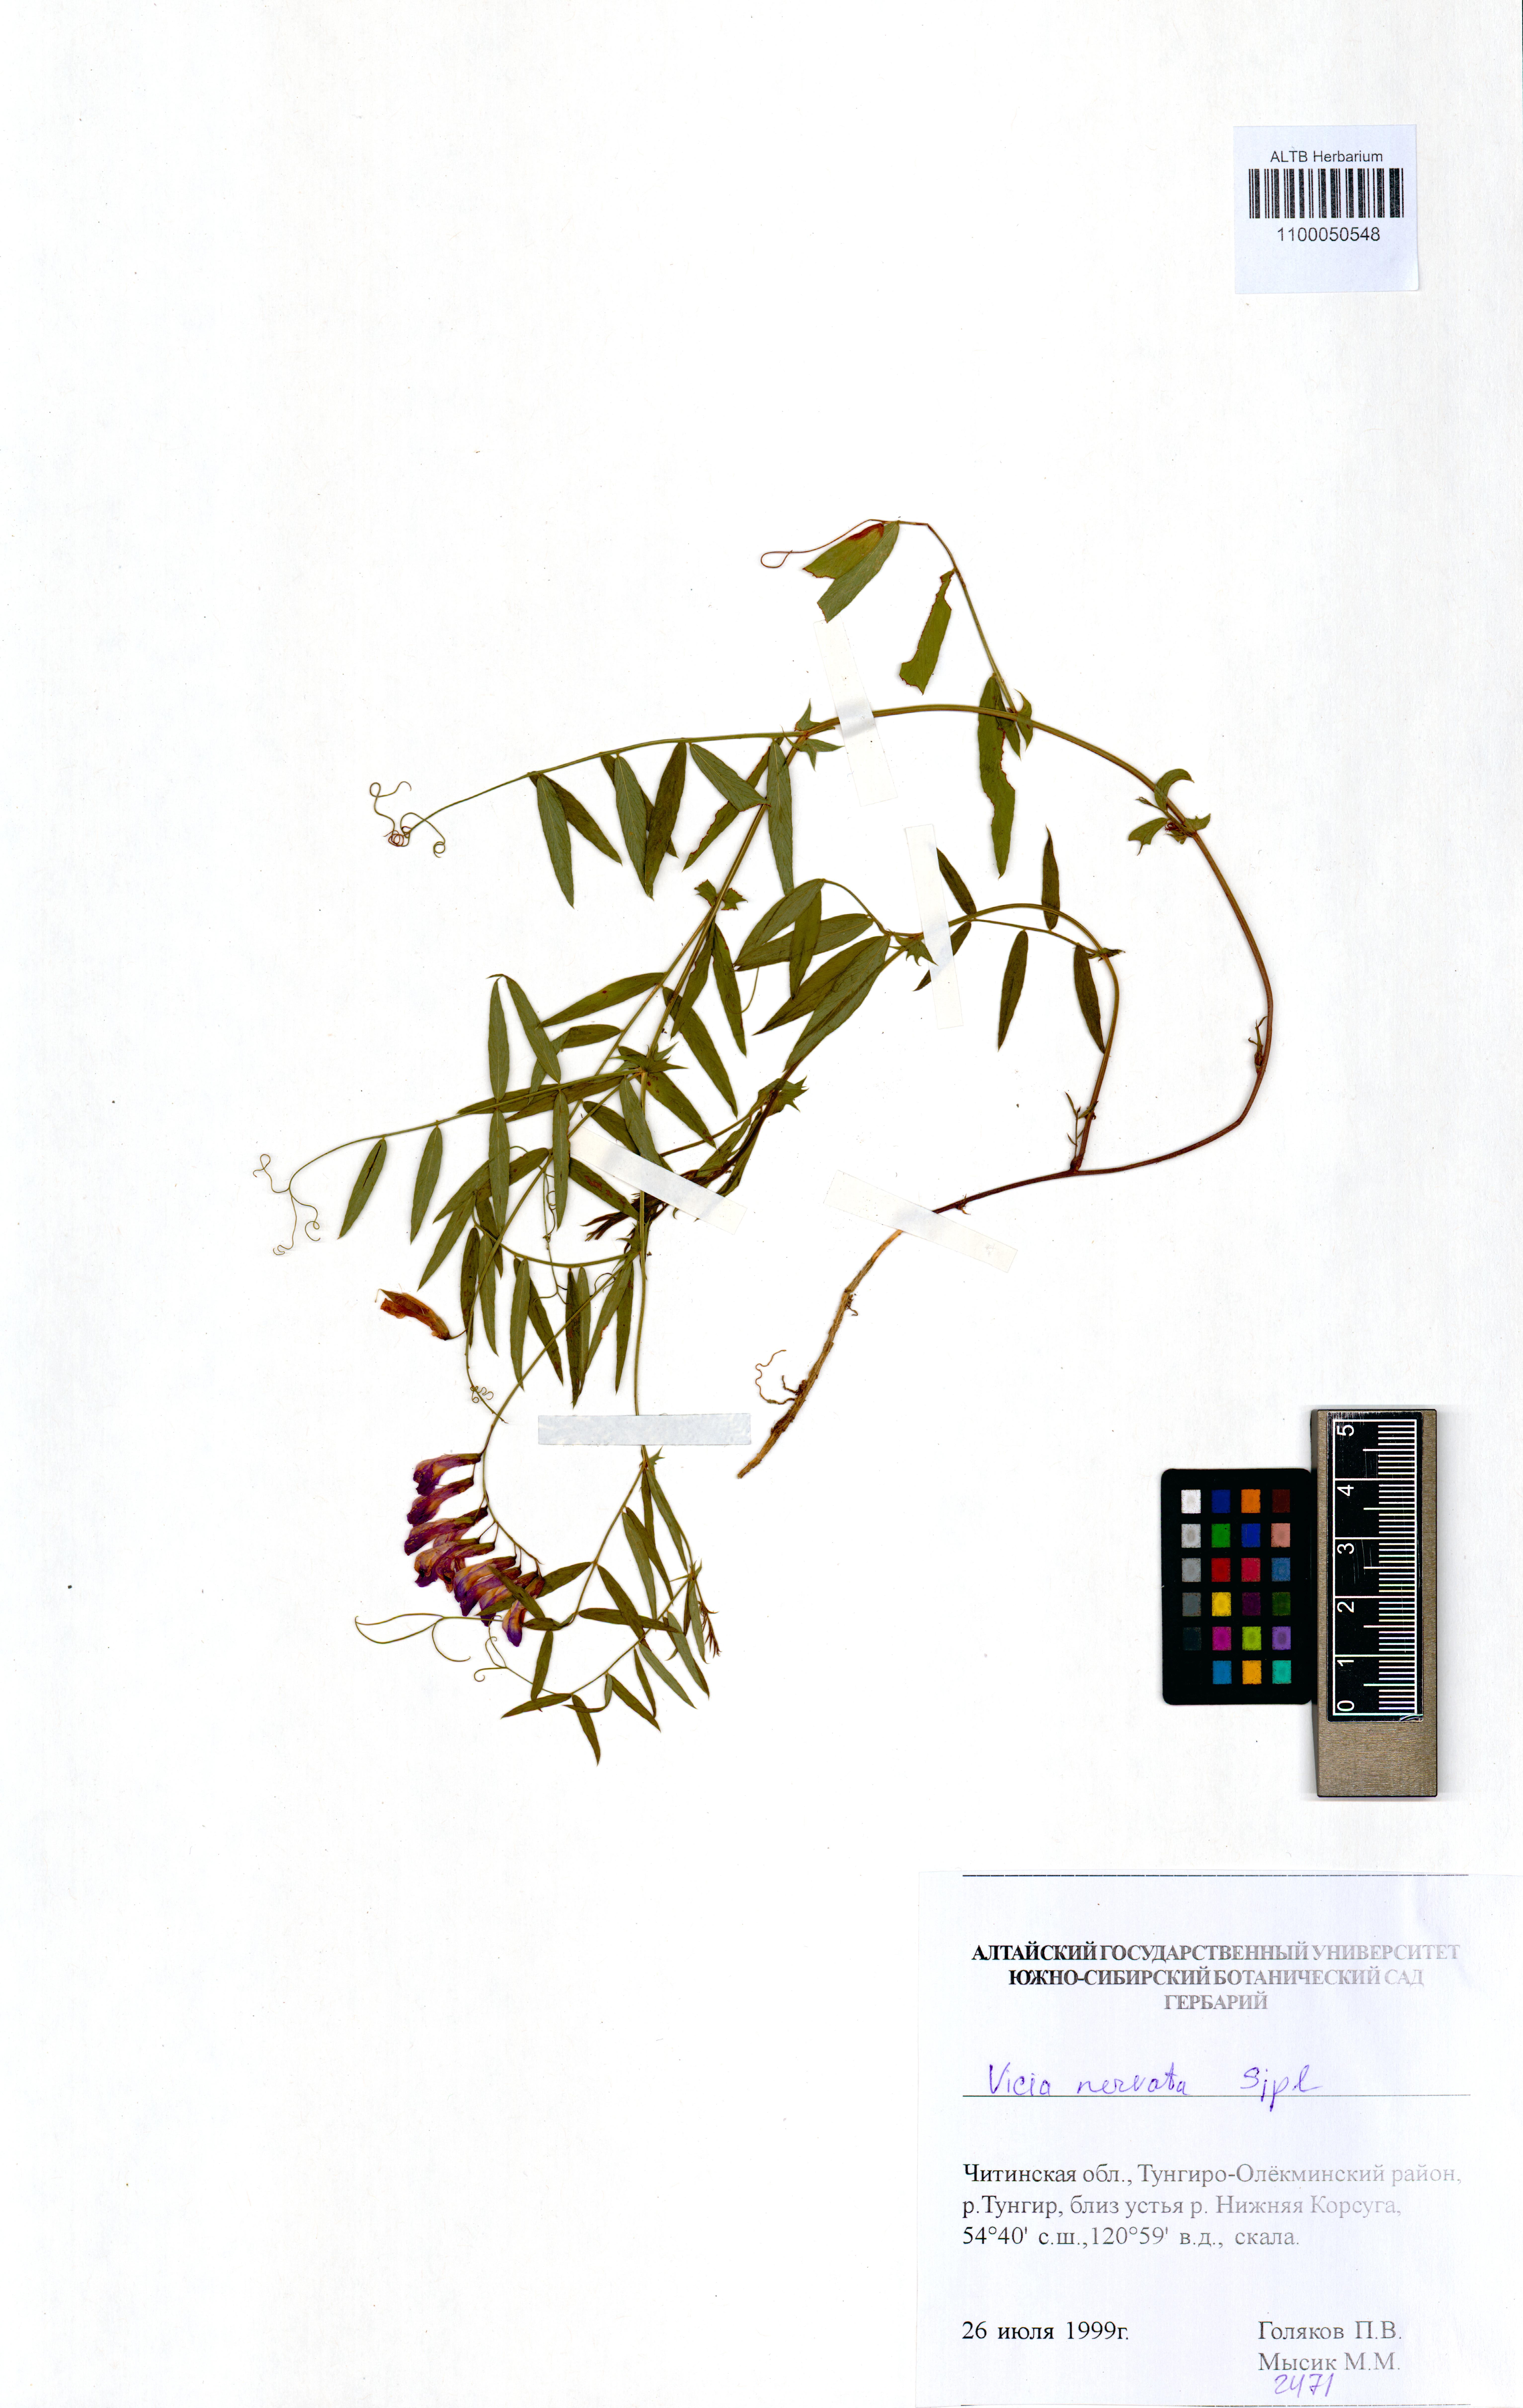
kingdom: Plantae
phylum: Tracheophyta
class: Magnoliopsida
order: Fabales
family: Fabaceae
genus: Vicia
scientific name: Vicia multicaulis
